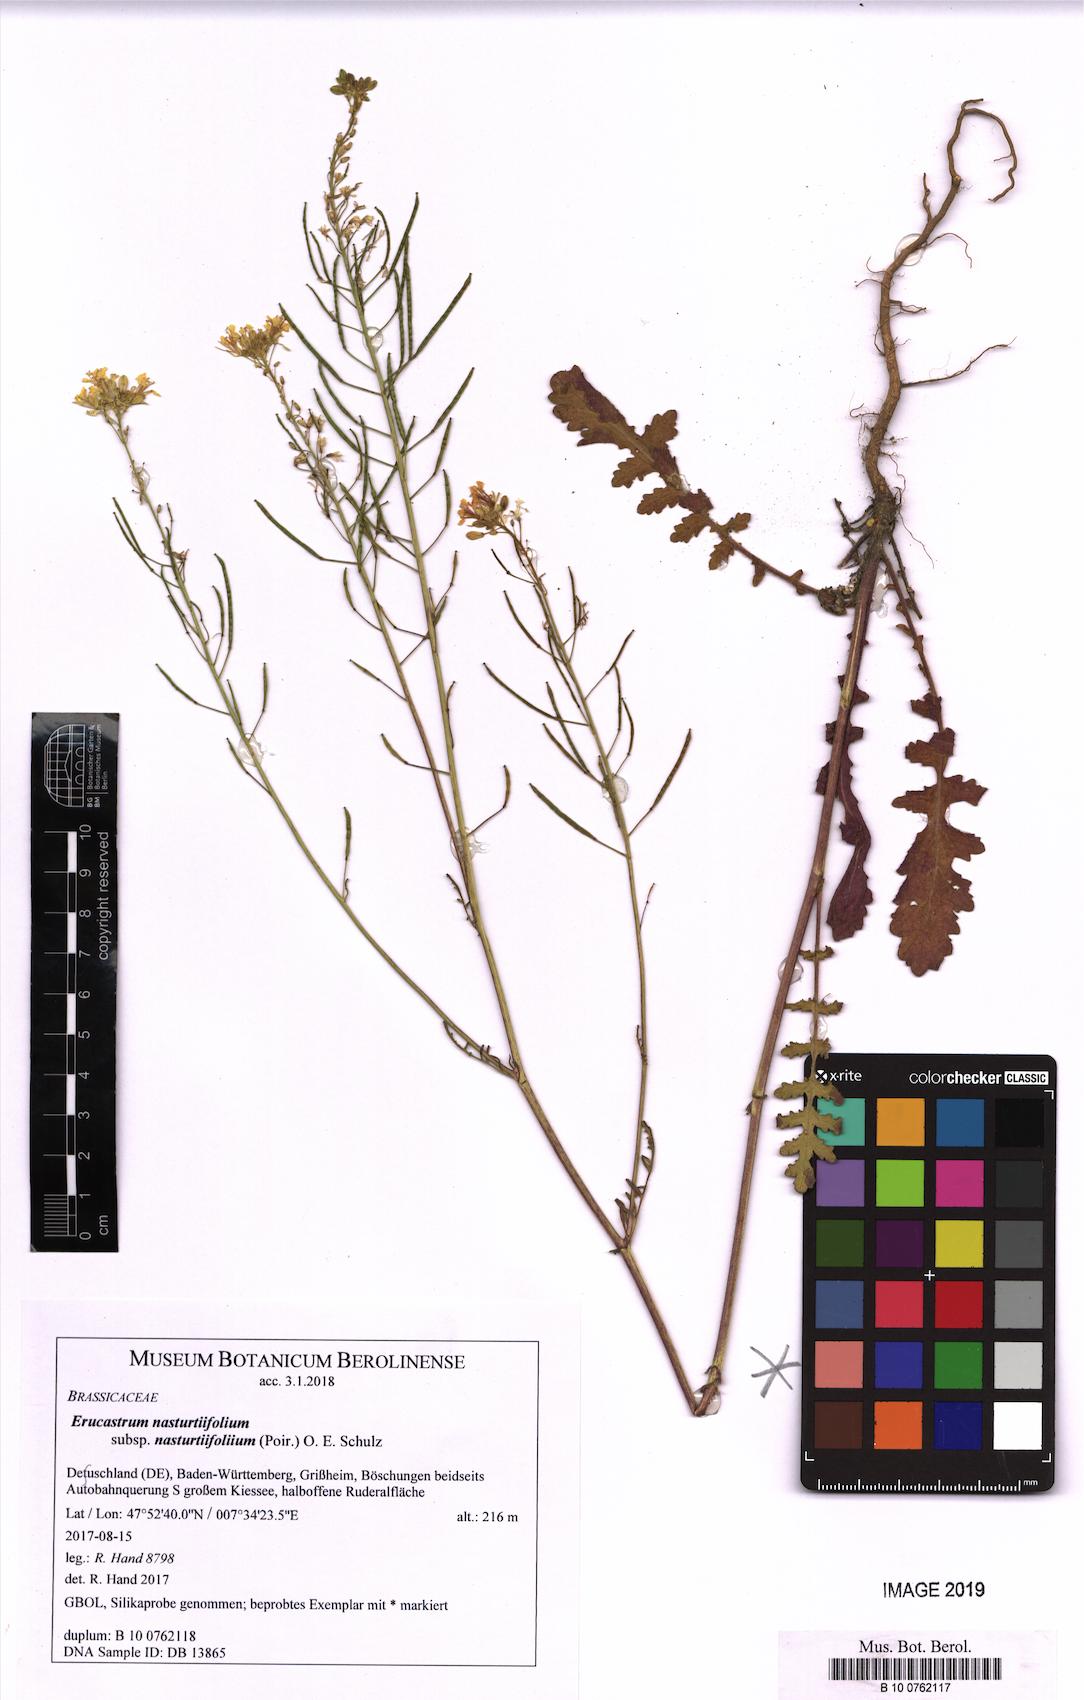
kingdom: Plantae
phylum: Tracheophyta
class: Magnoliopsida
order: Brassicales
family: Brassicaceae
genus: Erucastrum
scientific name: Erucastrum nasturtiifolium
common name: Watercress-leaf rocket
